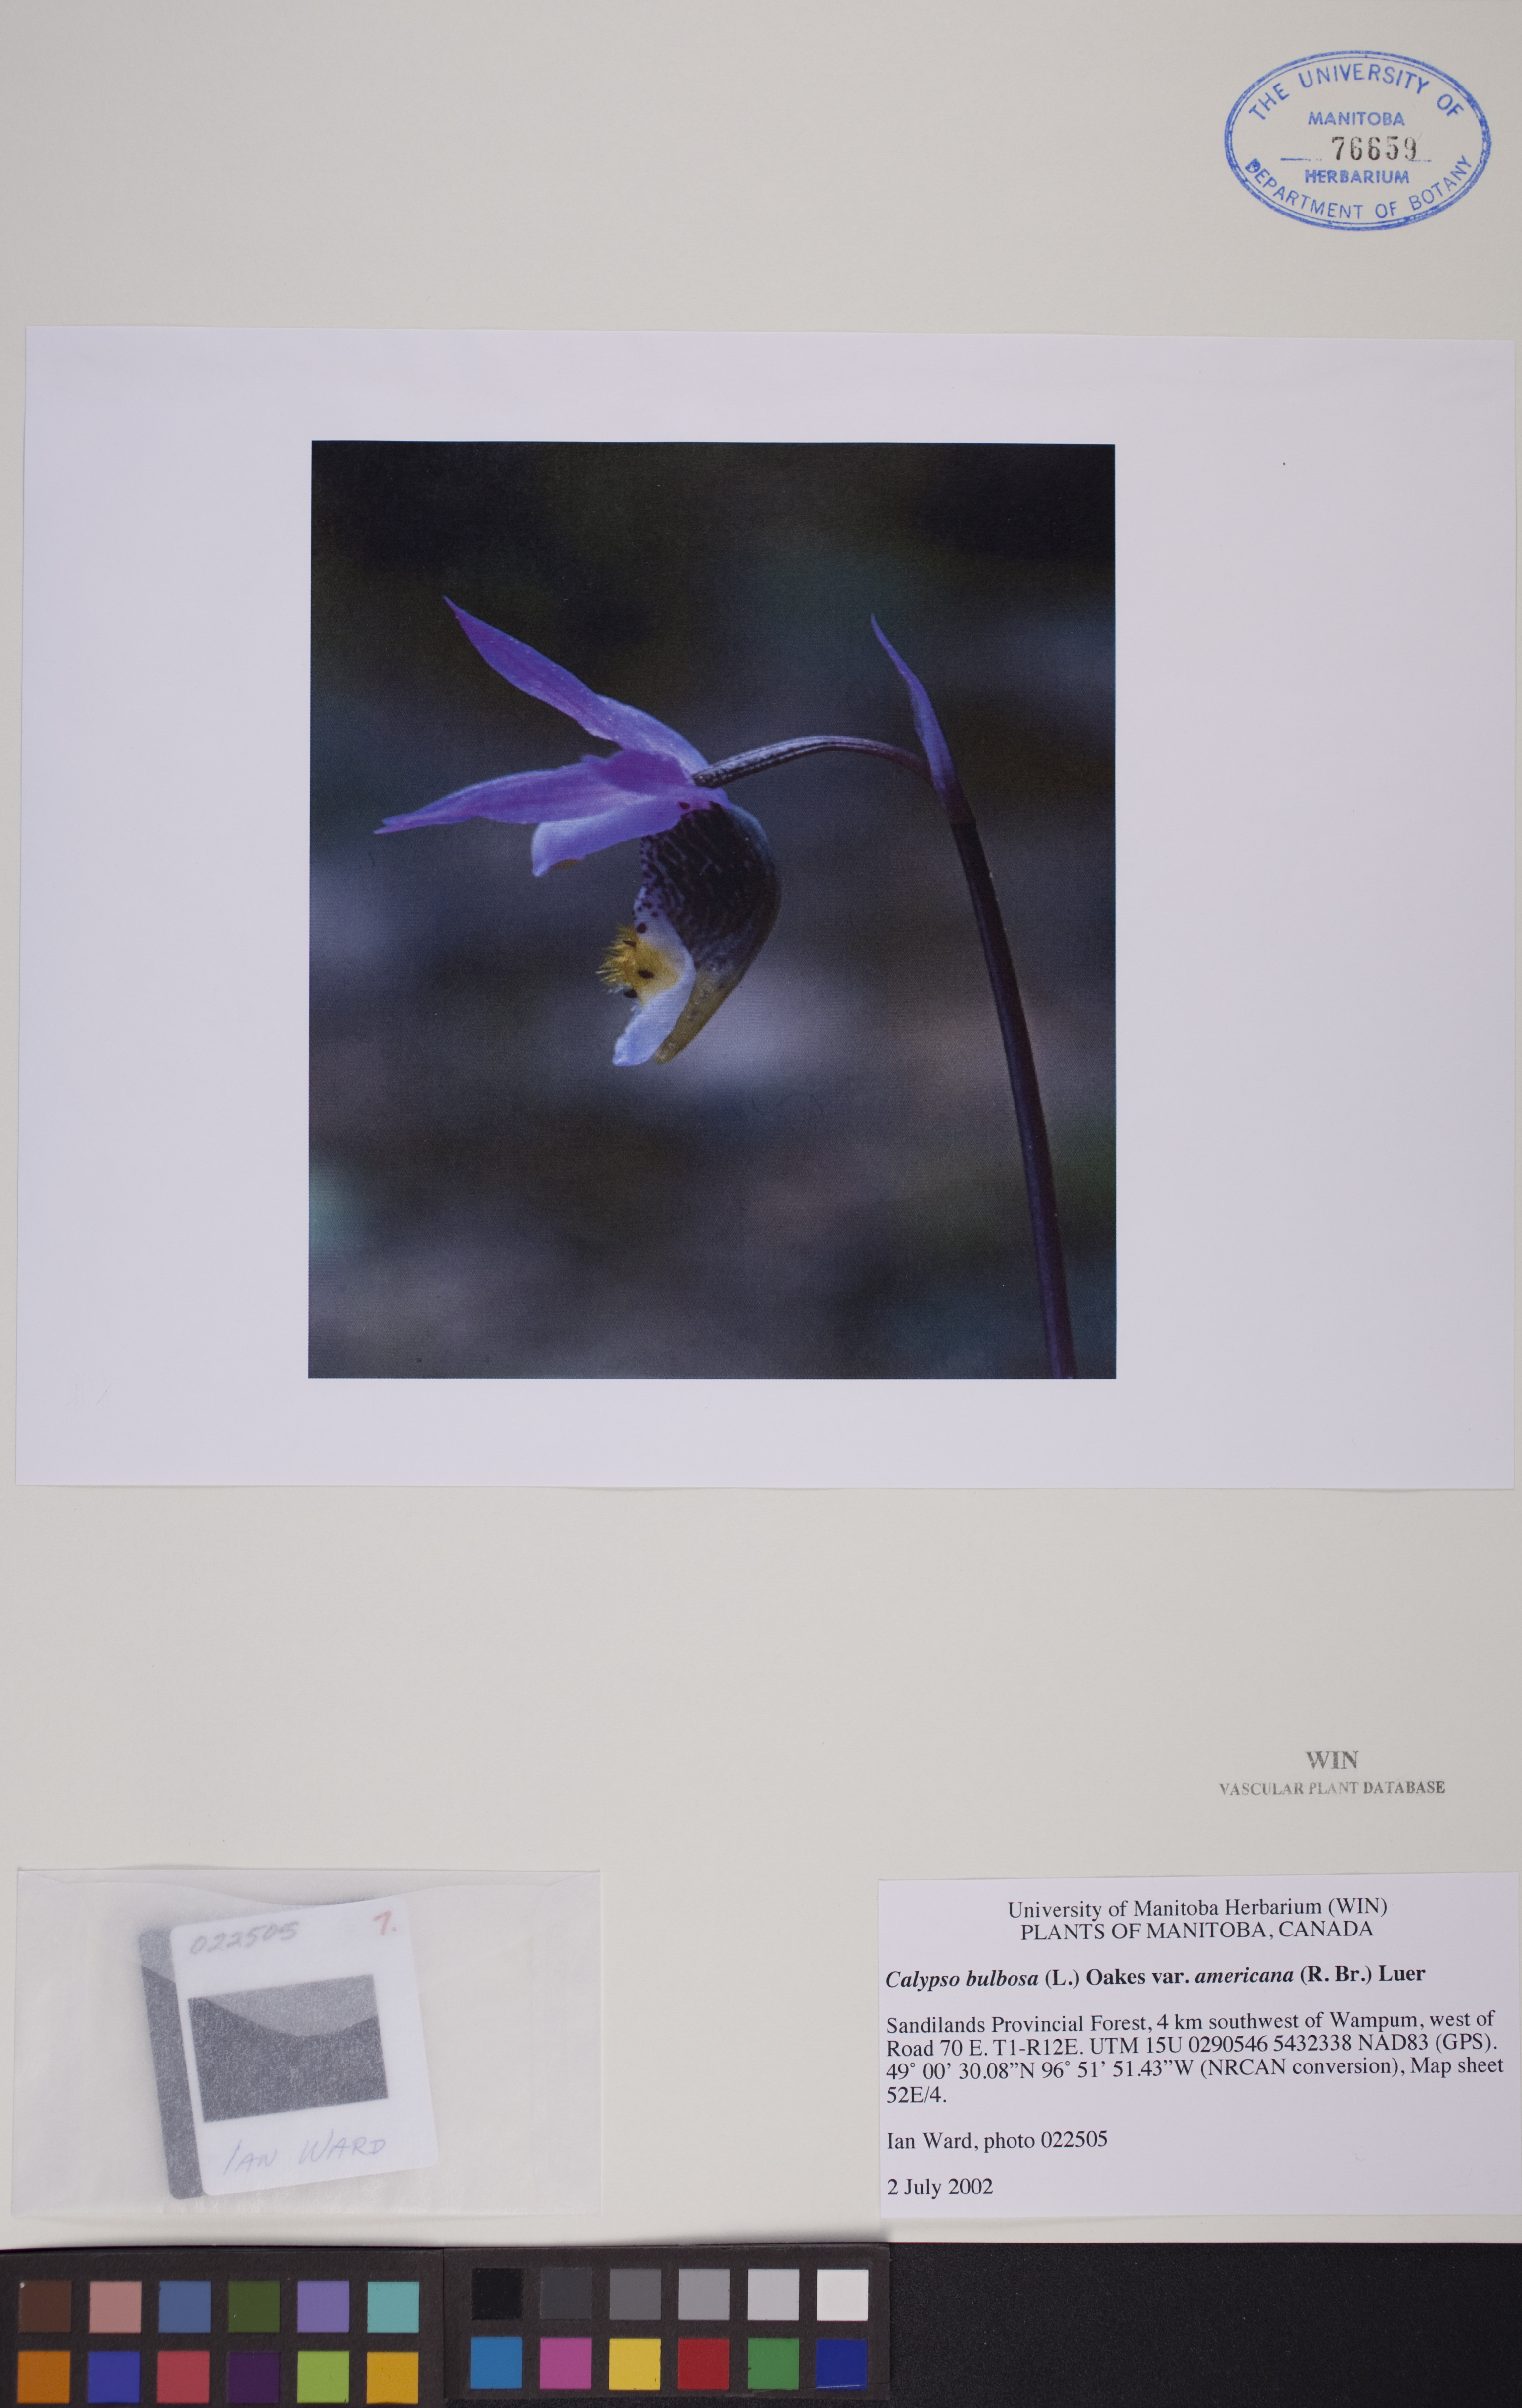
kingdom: Plantae
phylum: Tracheophyta
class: Liliopsida
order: Asparagales
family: Orchidaceae
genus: Calypso
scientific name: Calypso bulbosa
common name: Calypso
